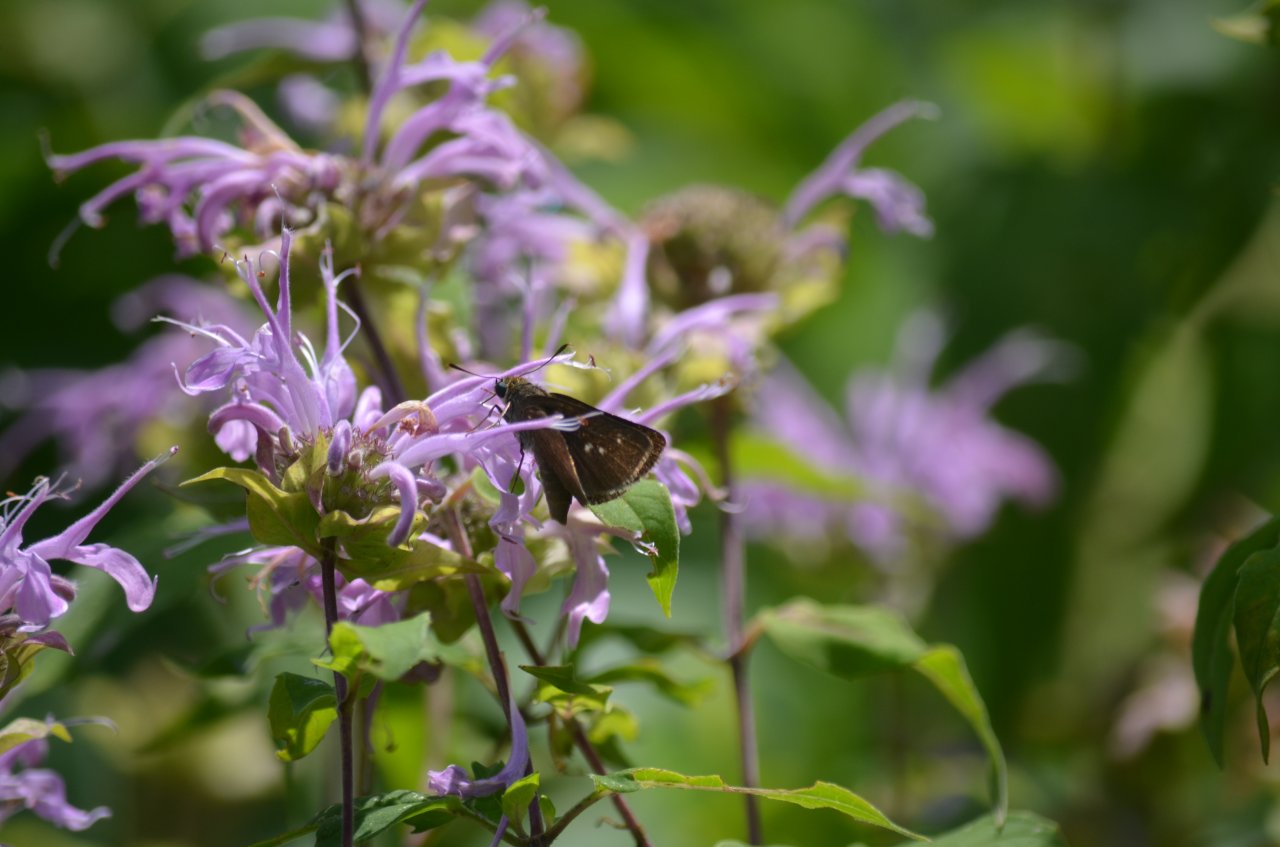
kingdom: Animalia
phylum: Arthropoda
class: Insecta
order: Lepidoptera
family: Hesperiidae
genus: Euphyes
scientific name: Euphyes vestris
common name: Dun Skipper
